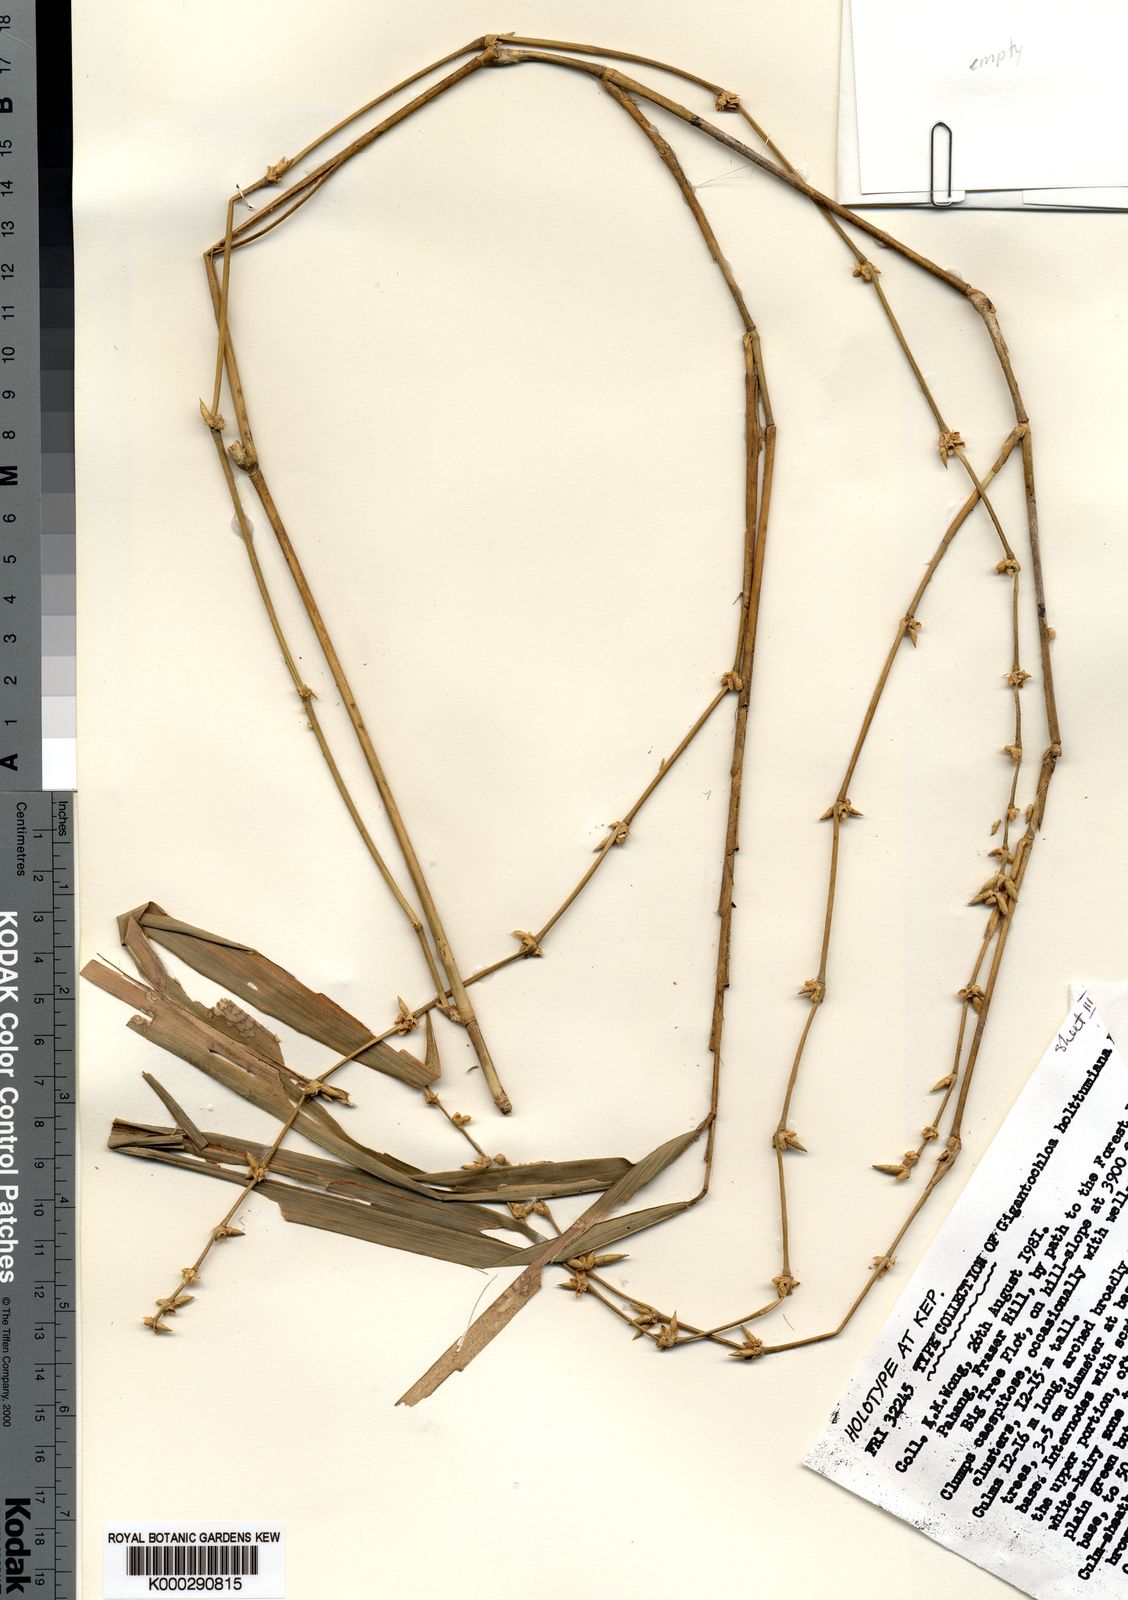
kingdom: Plantae
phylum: Tracheophyta
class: Liliopsida
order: Poales
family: Poaceae
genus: Gigantochloa
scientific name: Gigantochloa holttumiana
